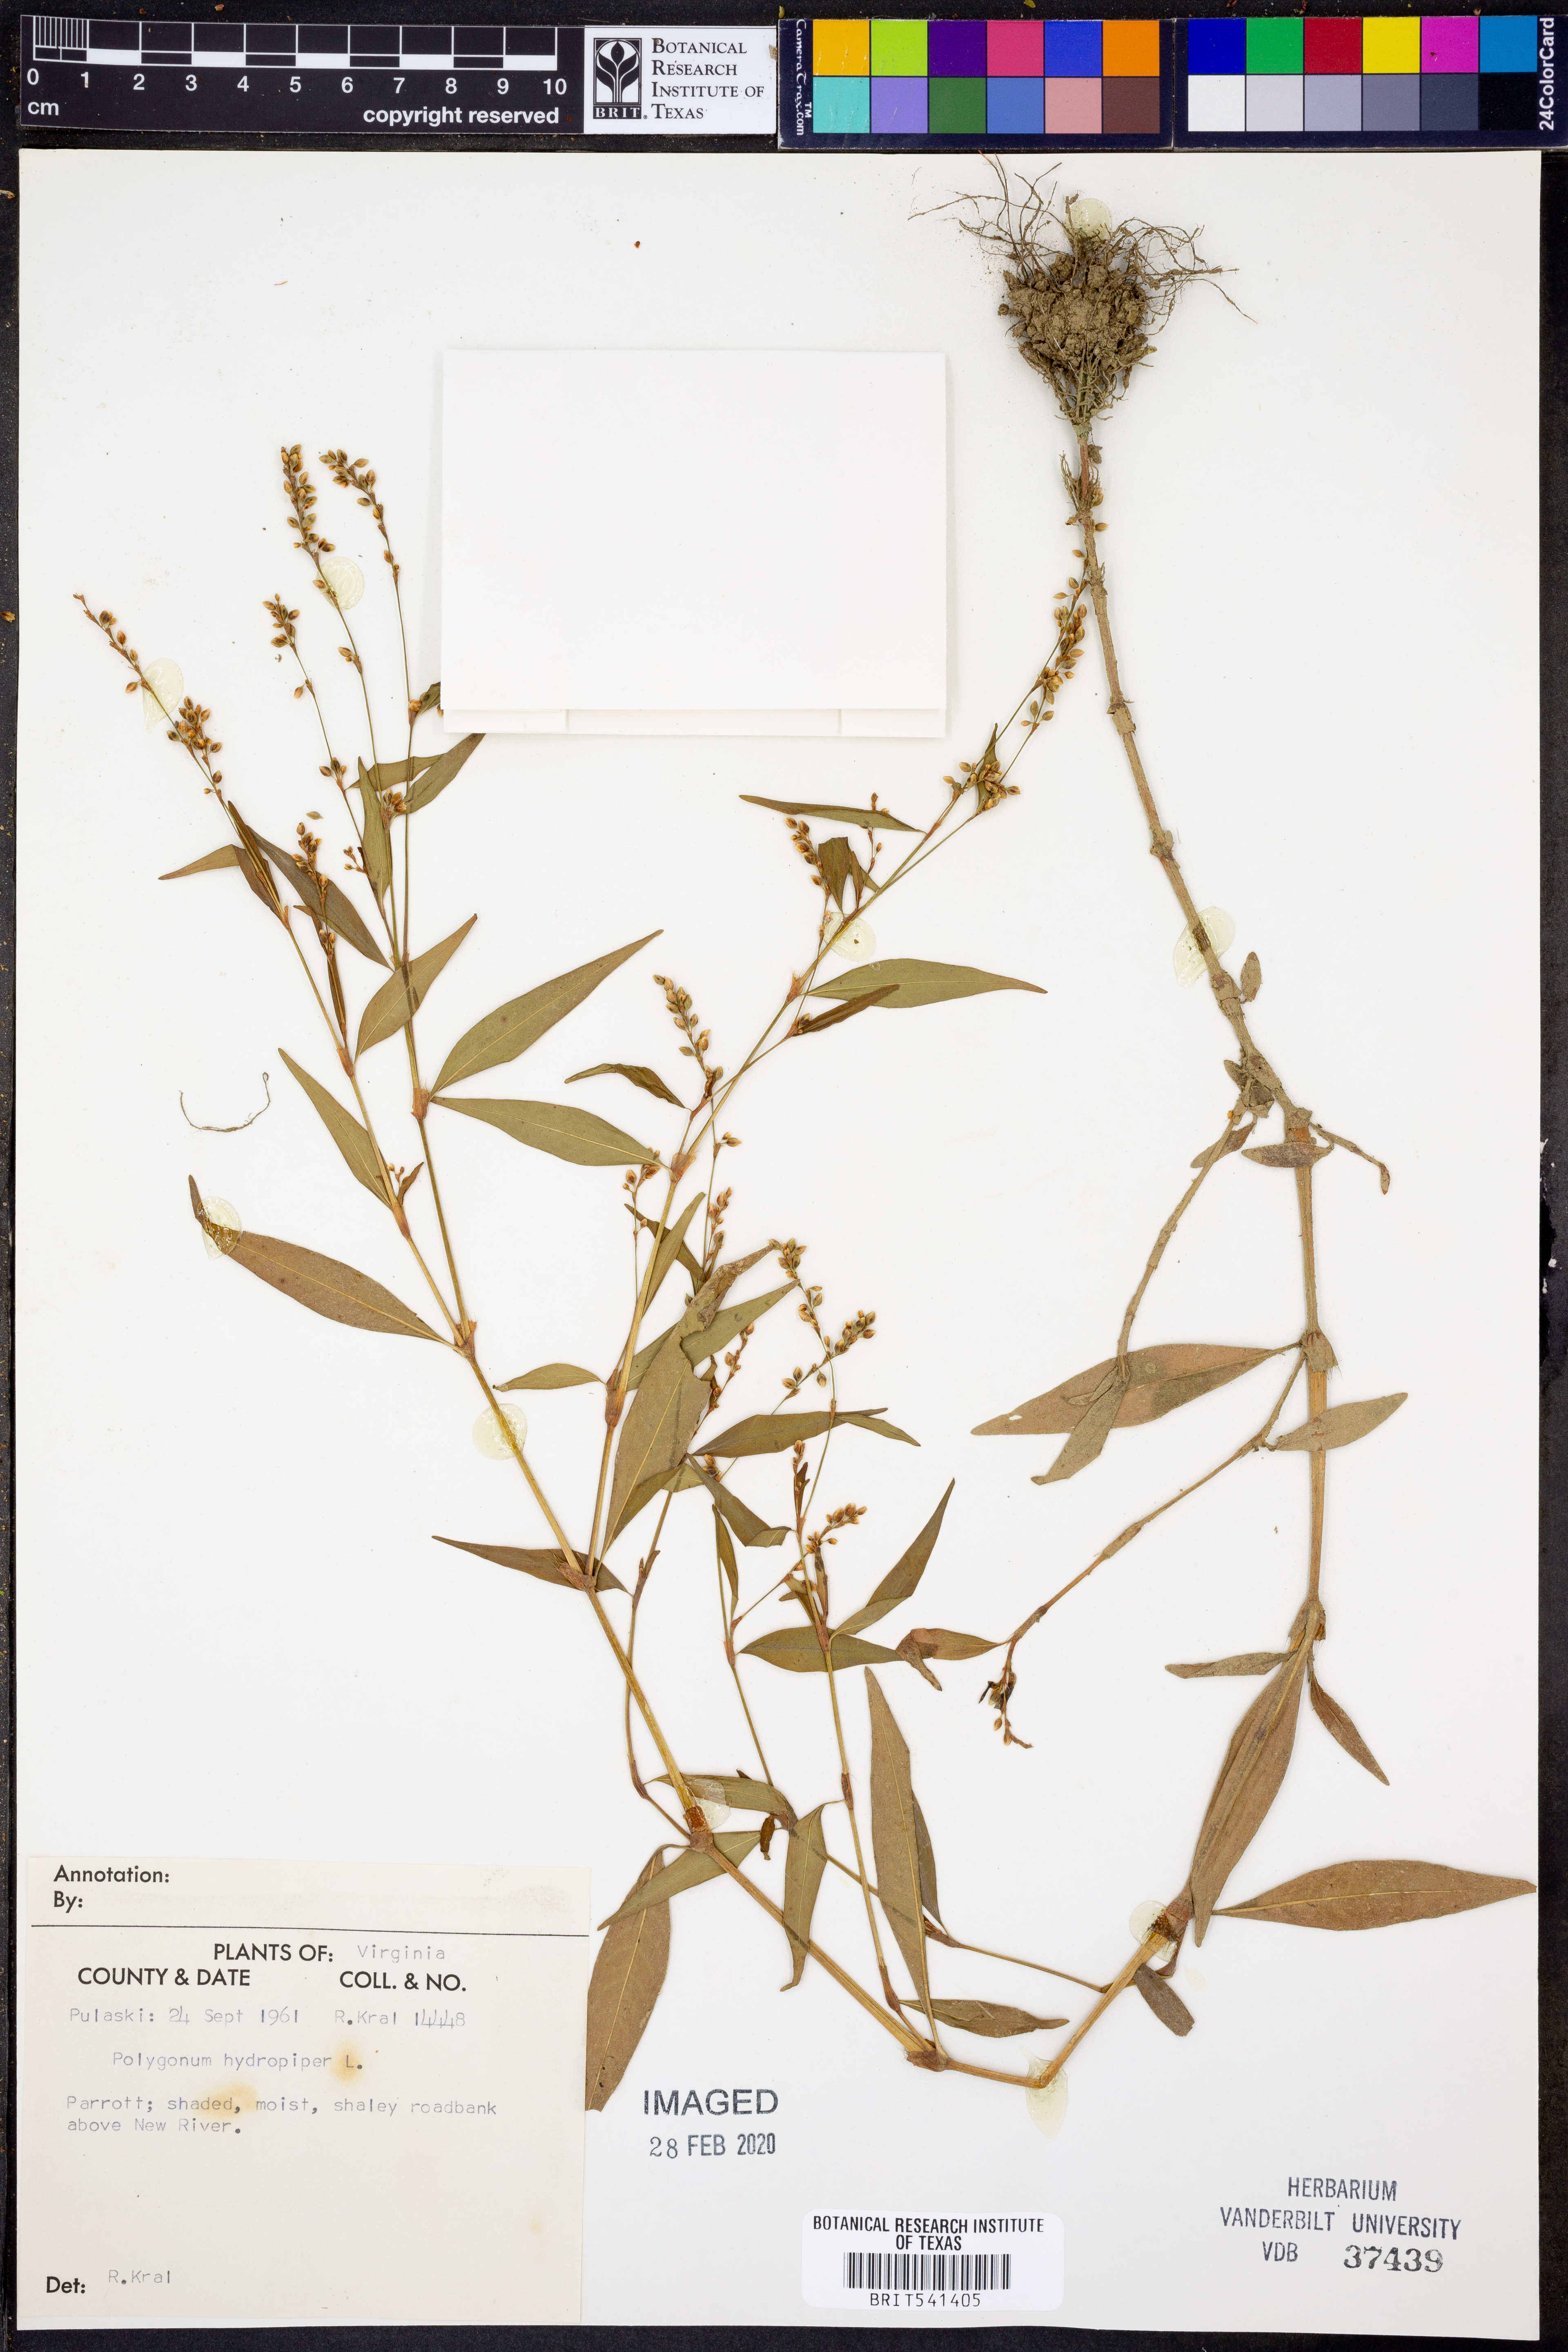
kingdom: Plantae
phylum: Tracheophyta
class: Magnoliopsida
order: Caryophyllales
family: Polygonaceae
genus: Persicaria
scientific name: Persicaria hydropiper
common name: Water-pepper
